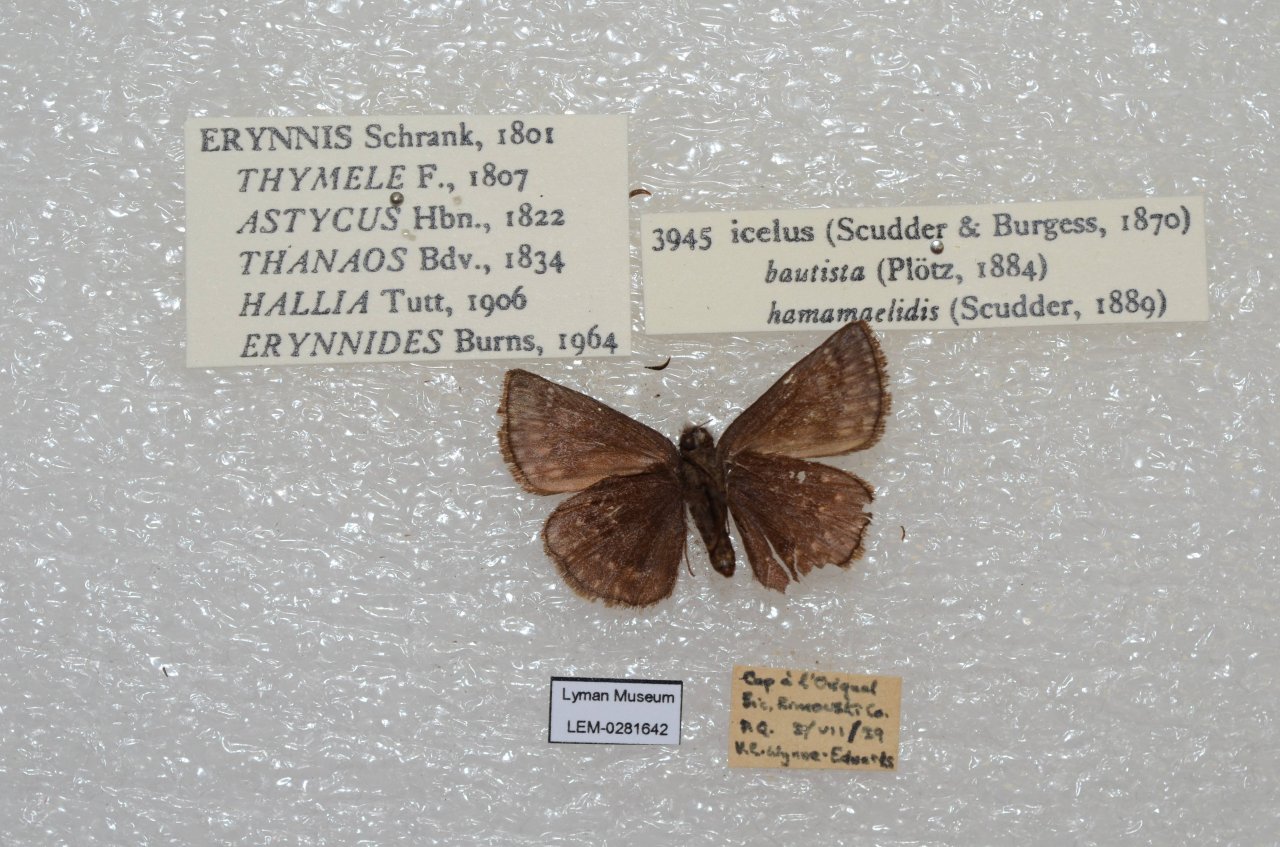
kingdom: Animalia
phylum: Arthropoda
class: Insecta
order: Lepidoptera
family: Hesperiidae
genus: Erynnis
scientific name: Erynnis icelus
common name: Dreamy Duskywing
